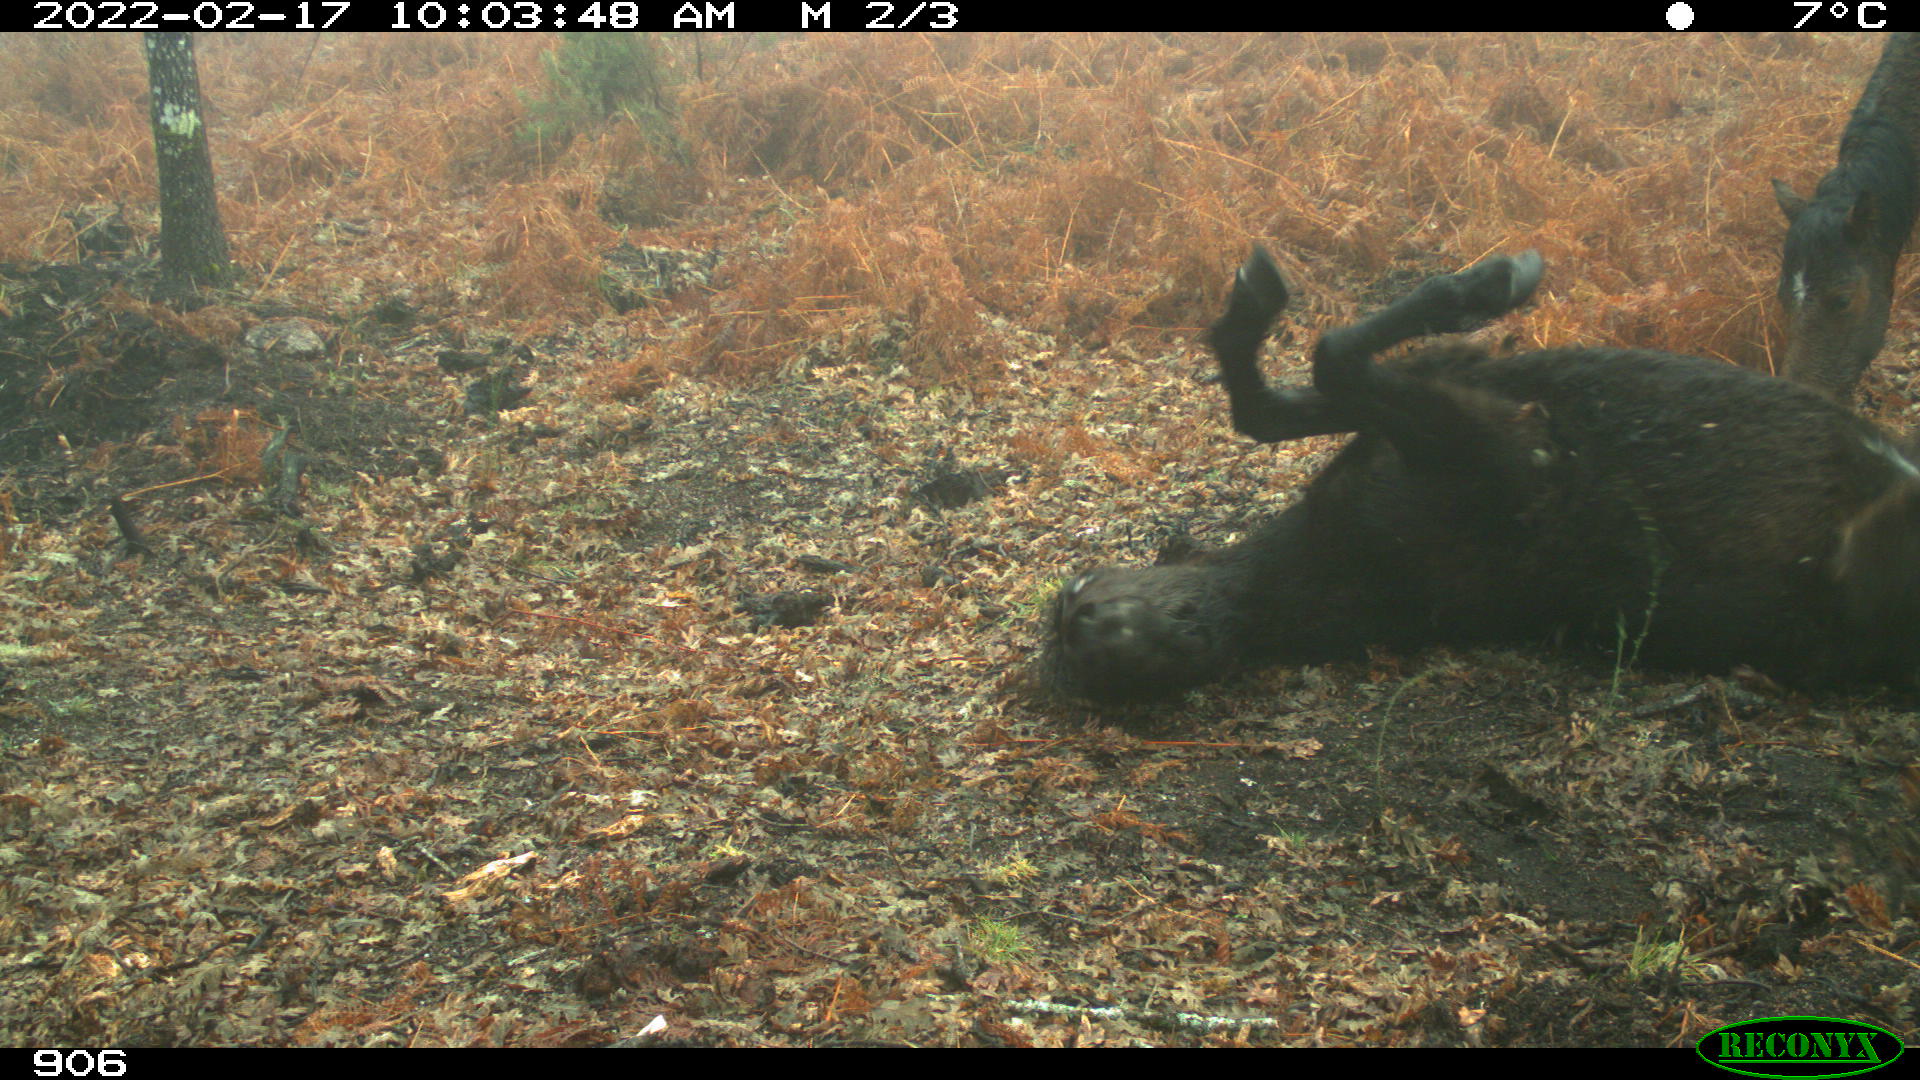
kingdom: Animalia
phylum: Chordata
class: Mammalia
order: Perissodactyla
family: Equidae
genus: Equus
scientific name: Equus caballus
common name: Horse
